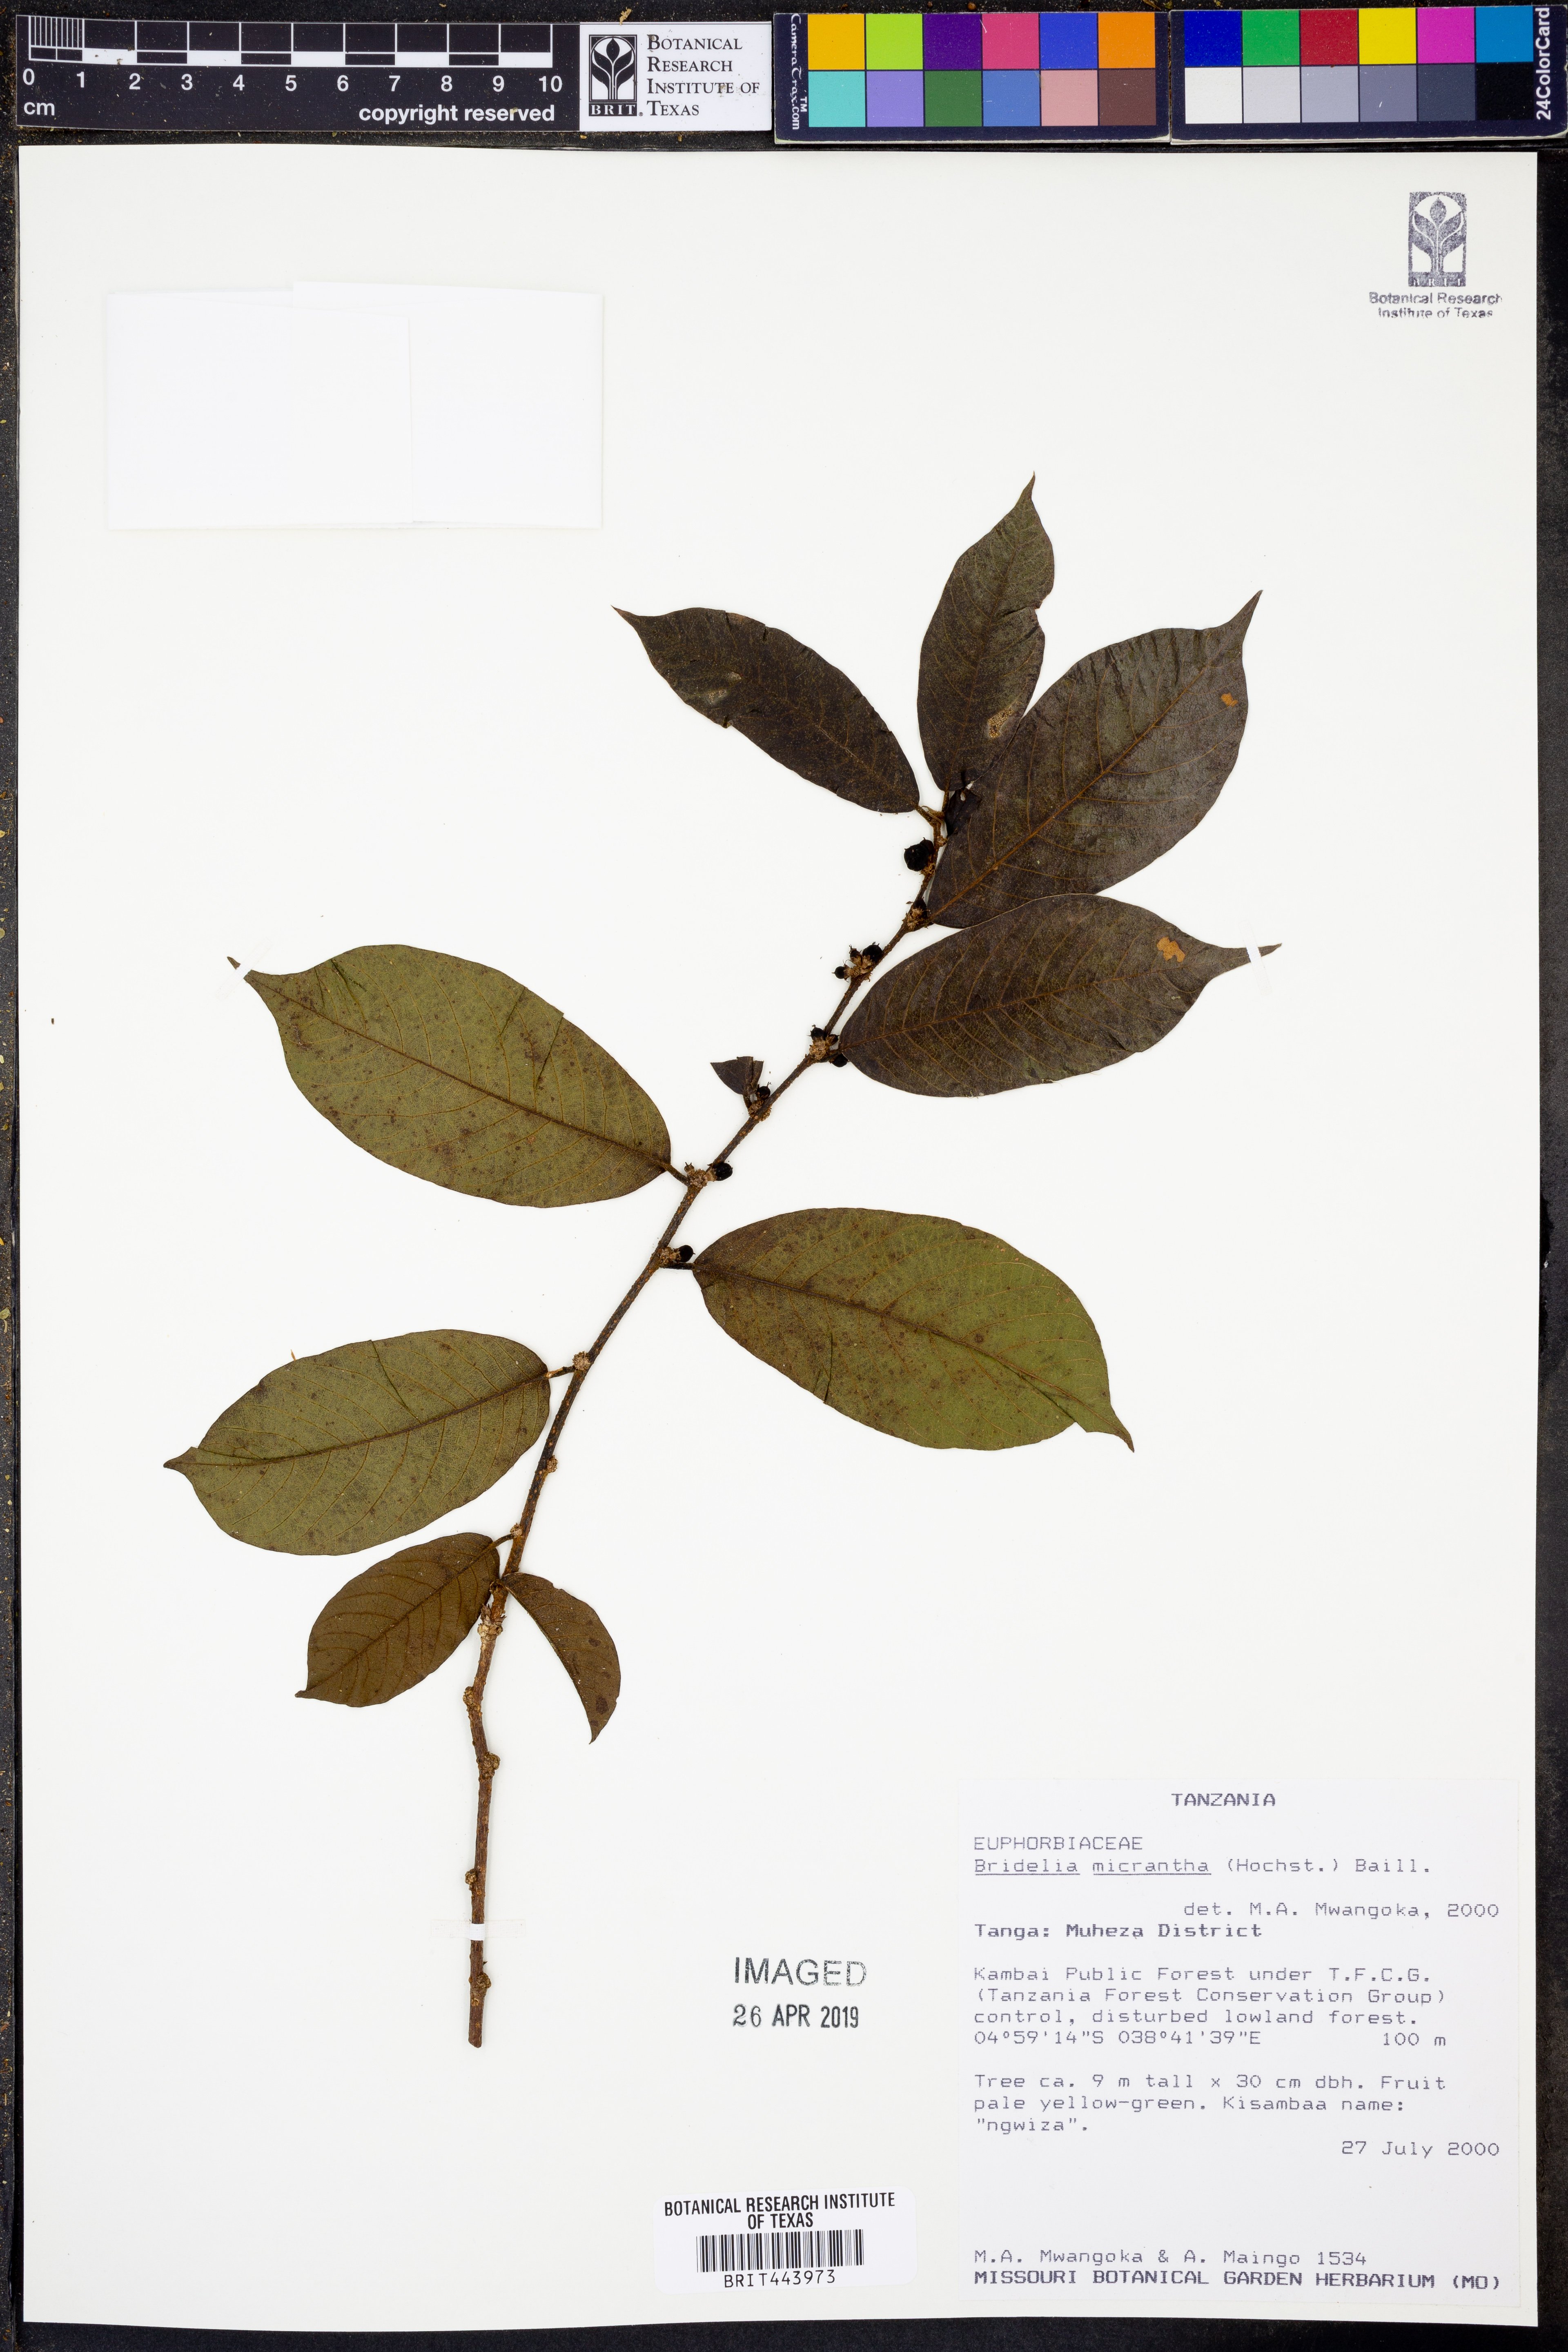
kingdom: Plantae
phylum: Tracheophyta
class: Magnoliopsida
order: Malpighiales
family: Phyllanthaceae
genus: Bridelia
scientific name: Bridelia micrantha
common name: Bridelia
